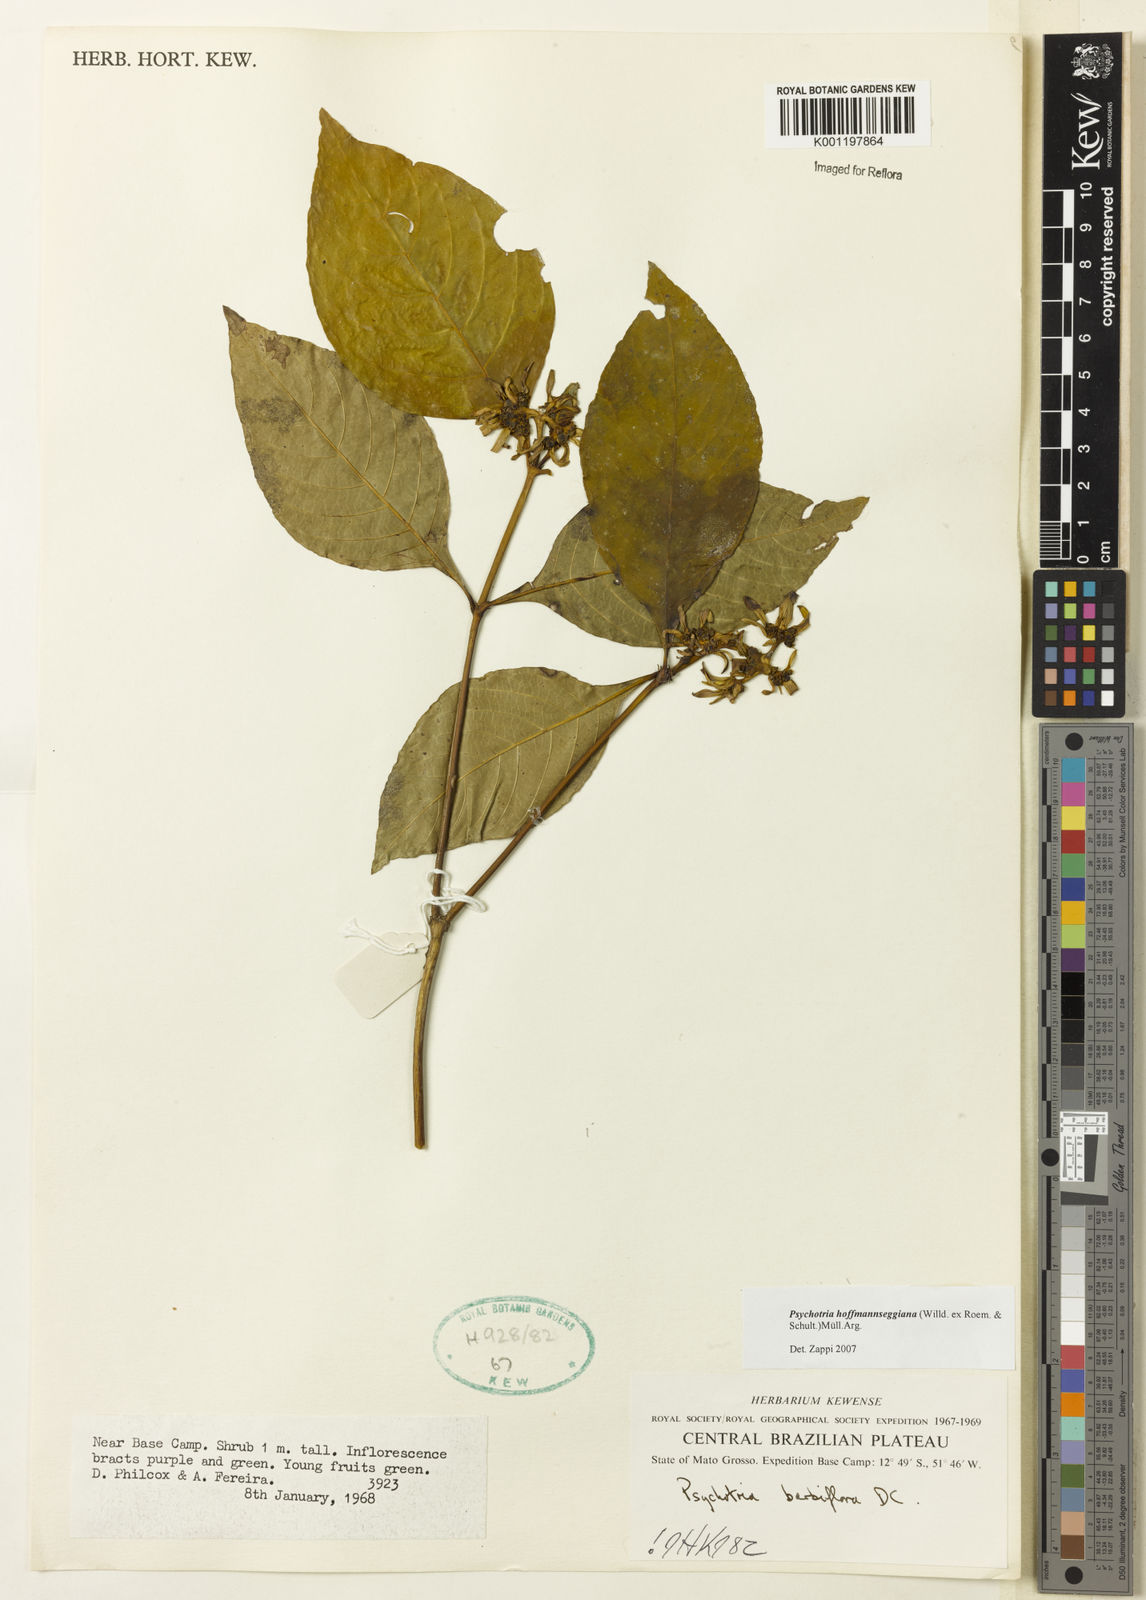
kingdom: Plantae
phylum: Tracheophyta
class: Magnoliopsida
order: Gentianales
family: Rubiaceae
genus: Psychotria
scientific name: Psychotria
